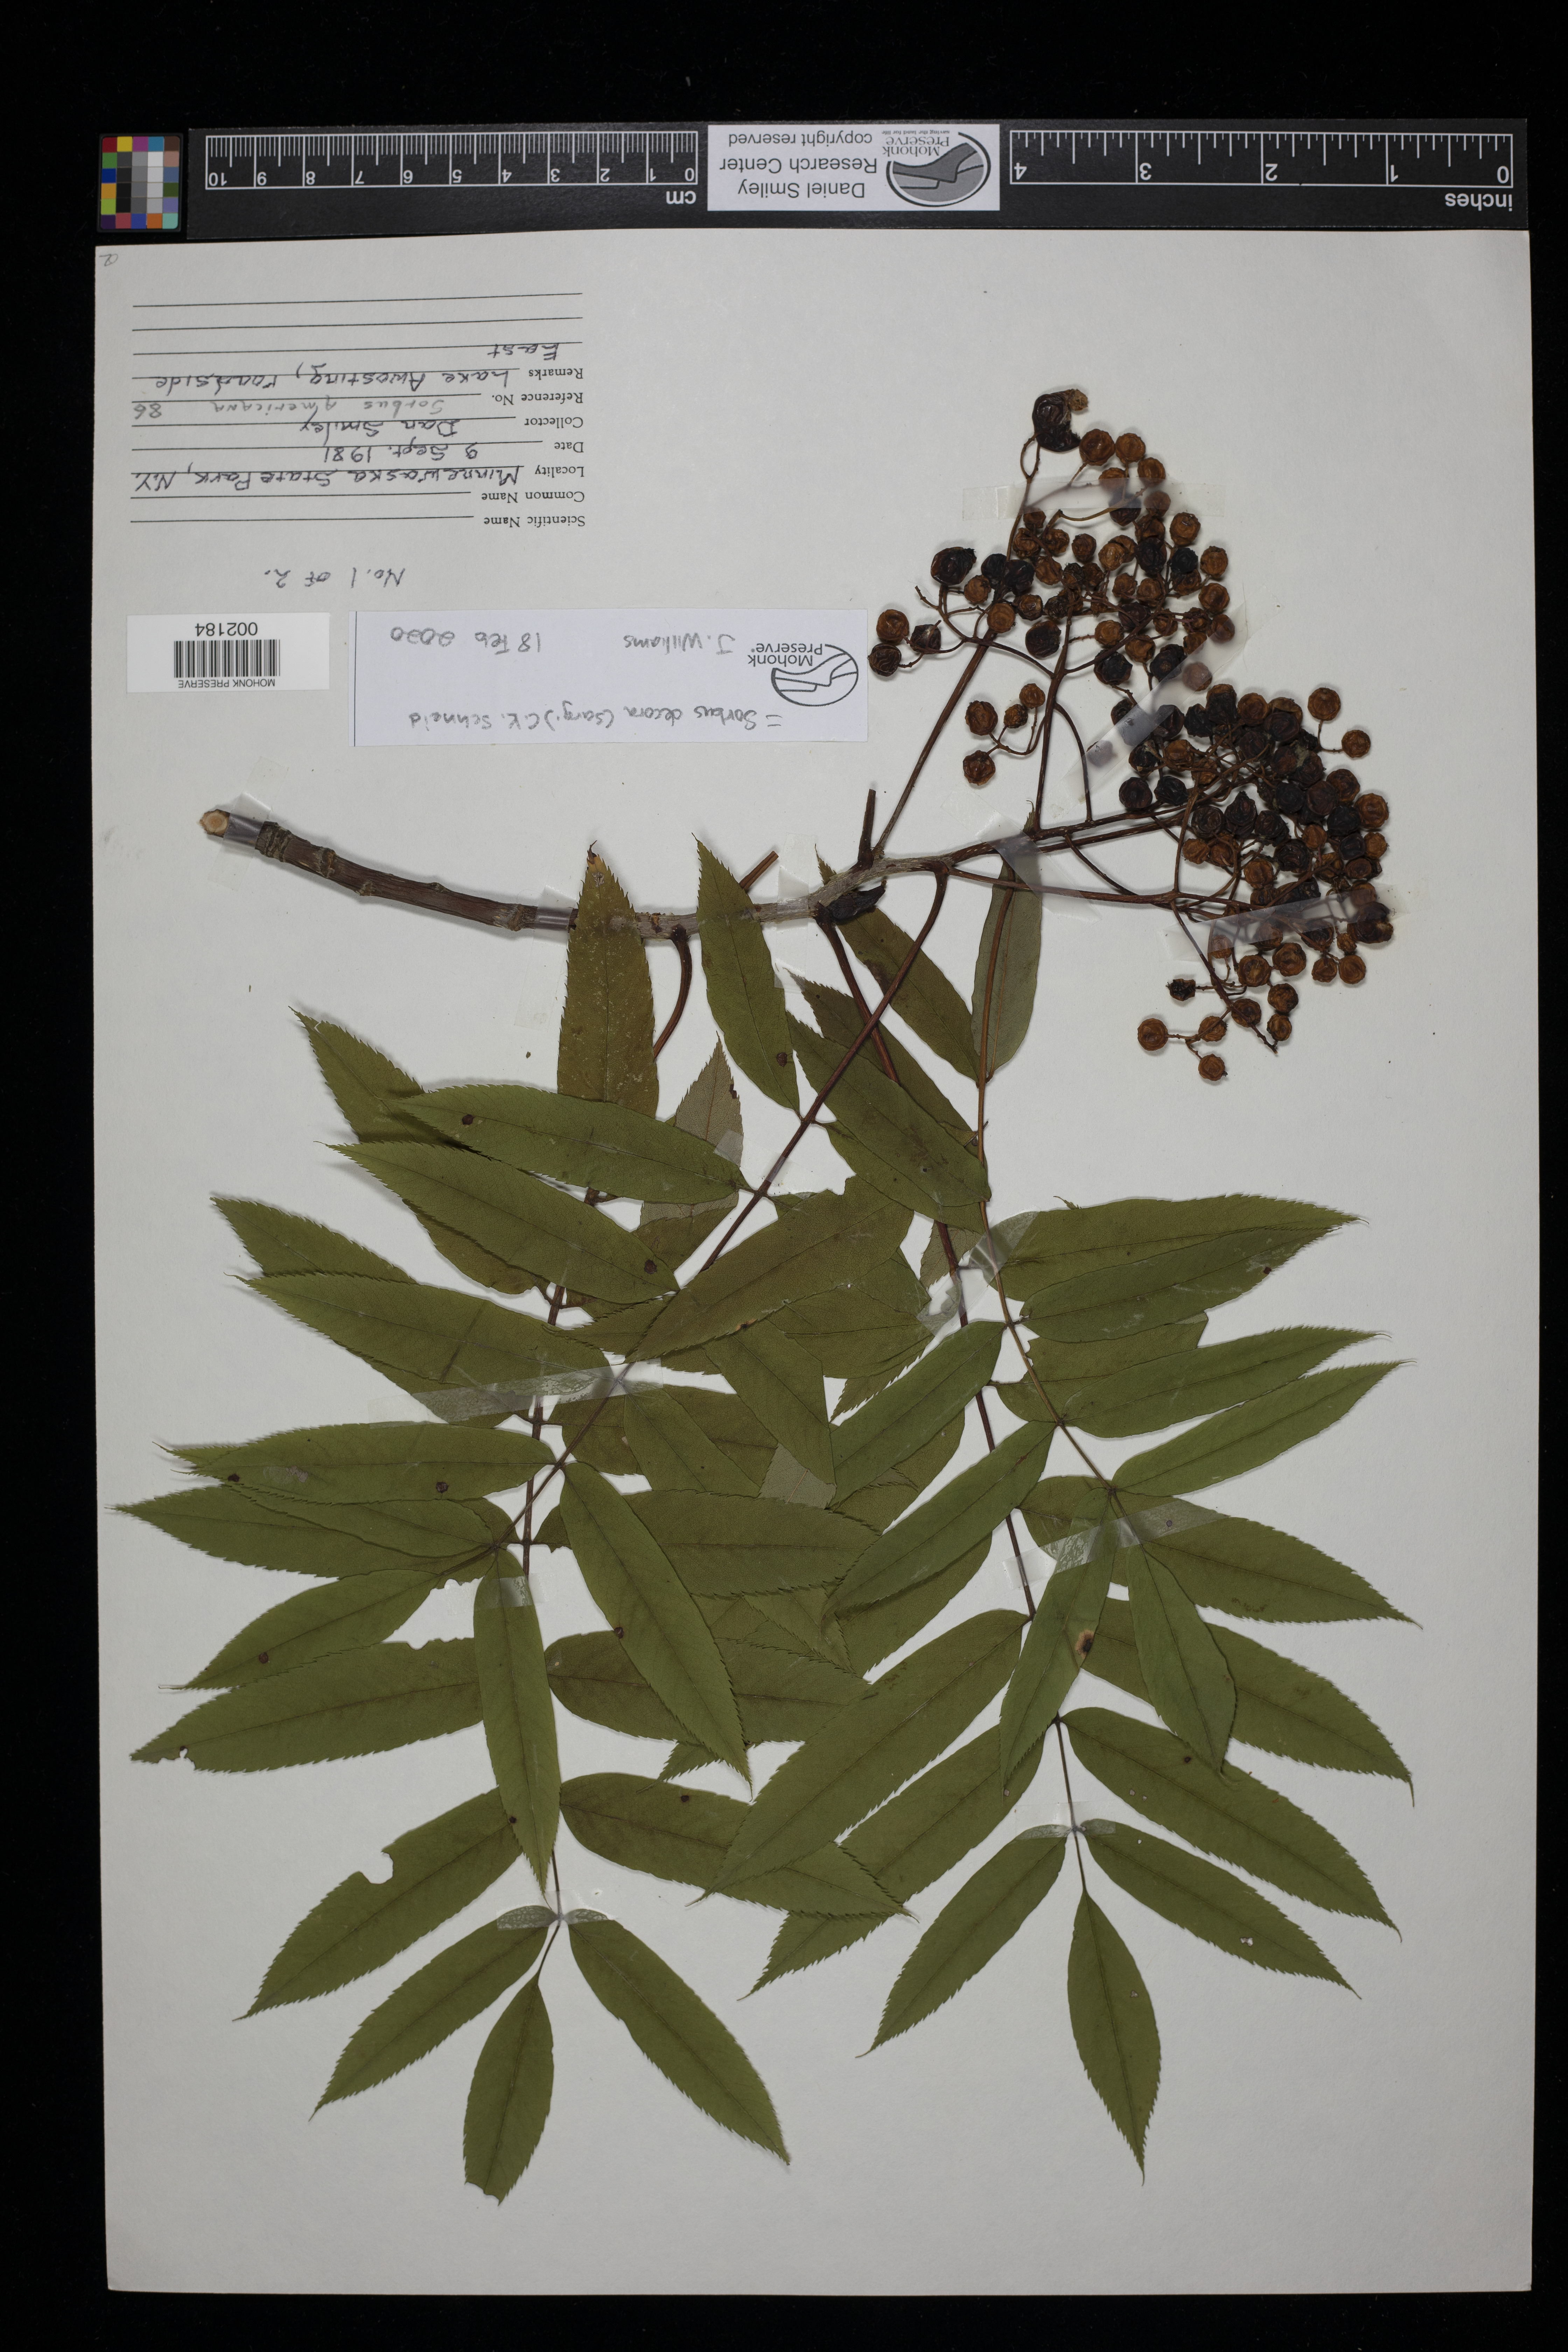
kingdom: Plantae
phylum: Tracheophyta
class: Magnoliopsida
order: Rosales
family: Rosaceae
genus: Sorbus
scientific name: Sorbus decora
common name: Northern mountain-ash
